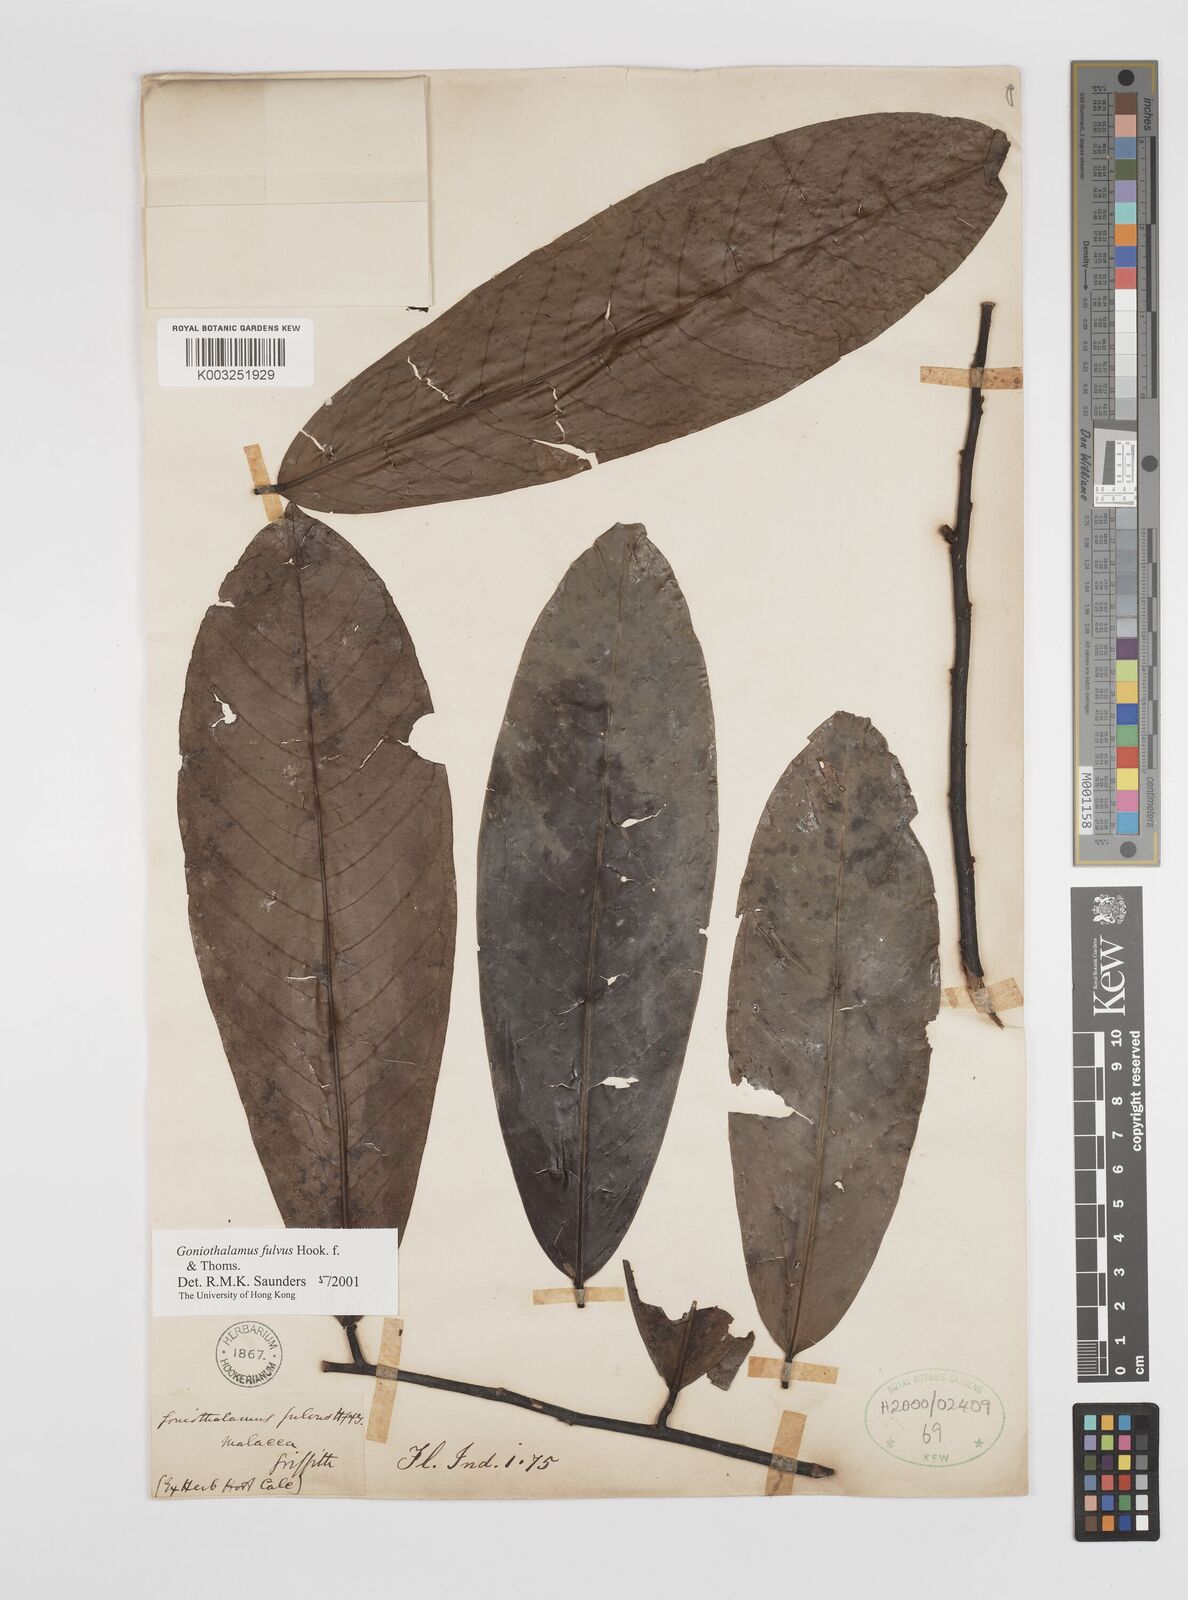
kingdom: Plantae
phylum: Tracheophyta
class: Magnoliopsida
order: Magnoliales
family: Annonaceae
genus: Goniothalamus
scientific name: Goniothalamus fulvus
